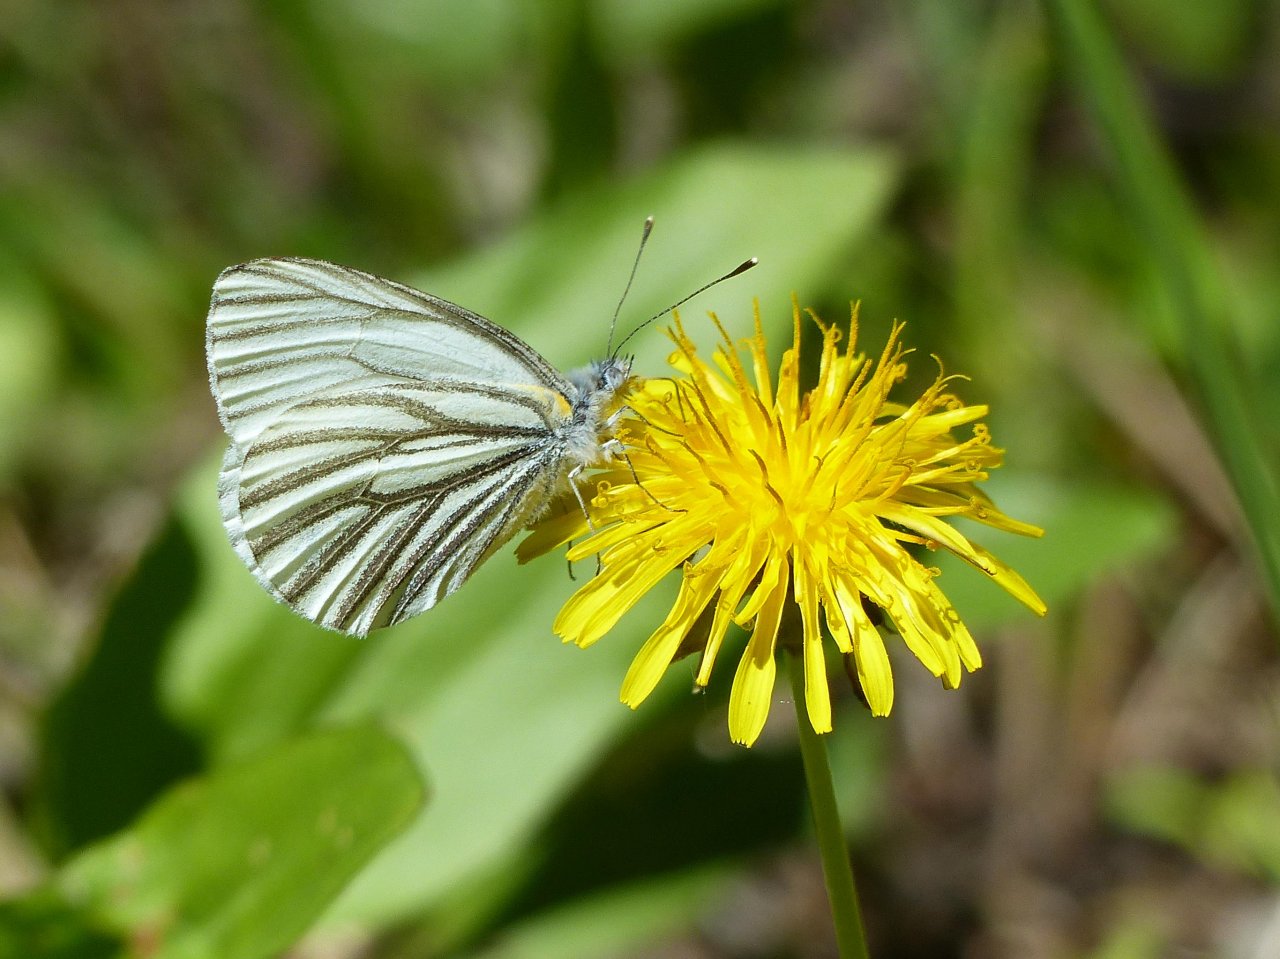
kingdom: Animalia
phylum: Arthropoda
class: Insecta
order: Lepidoptera
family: Pieridae
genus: Pieris
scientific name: Pieris oleracea
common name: Mustard White
